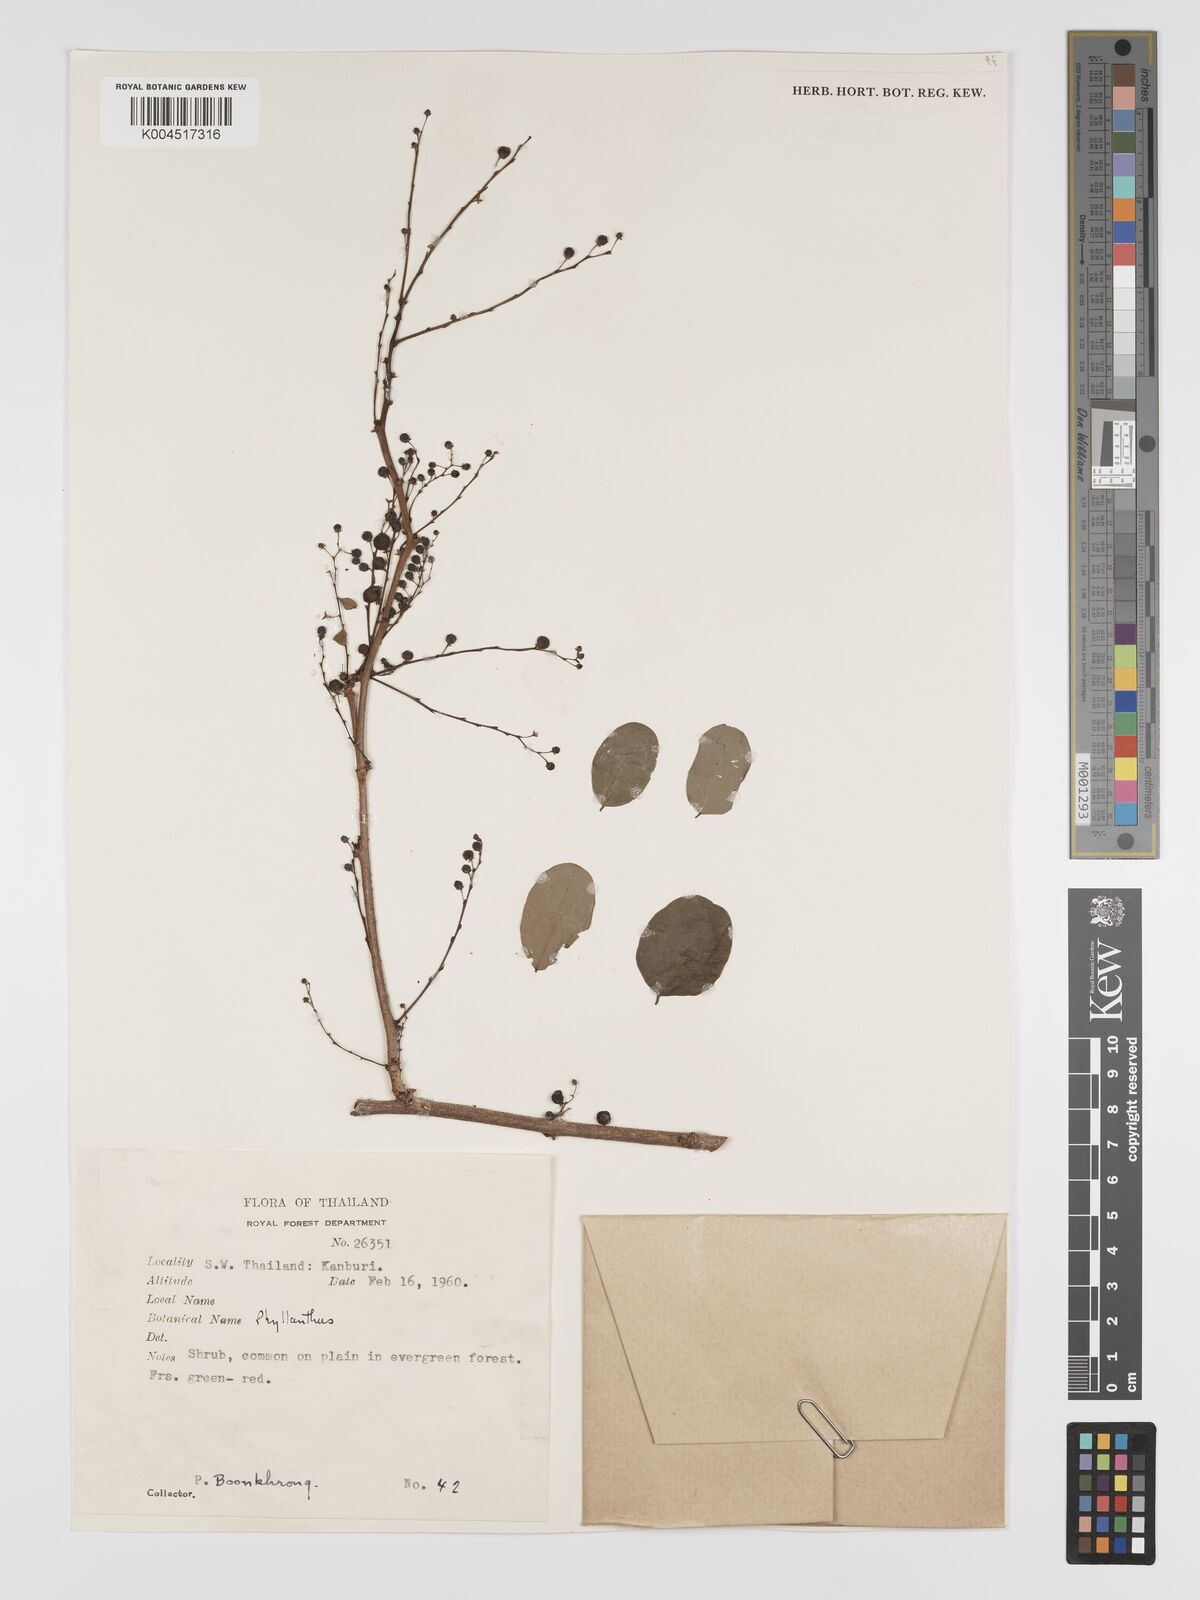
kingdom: Plantae
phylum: Tracheophyta
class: Magnoliopsida
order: Malpighiales
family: Phyllanthaceae
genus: Phyllanthus
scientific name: Phyllanthus reticulatus
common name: Potato bush
